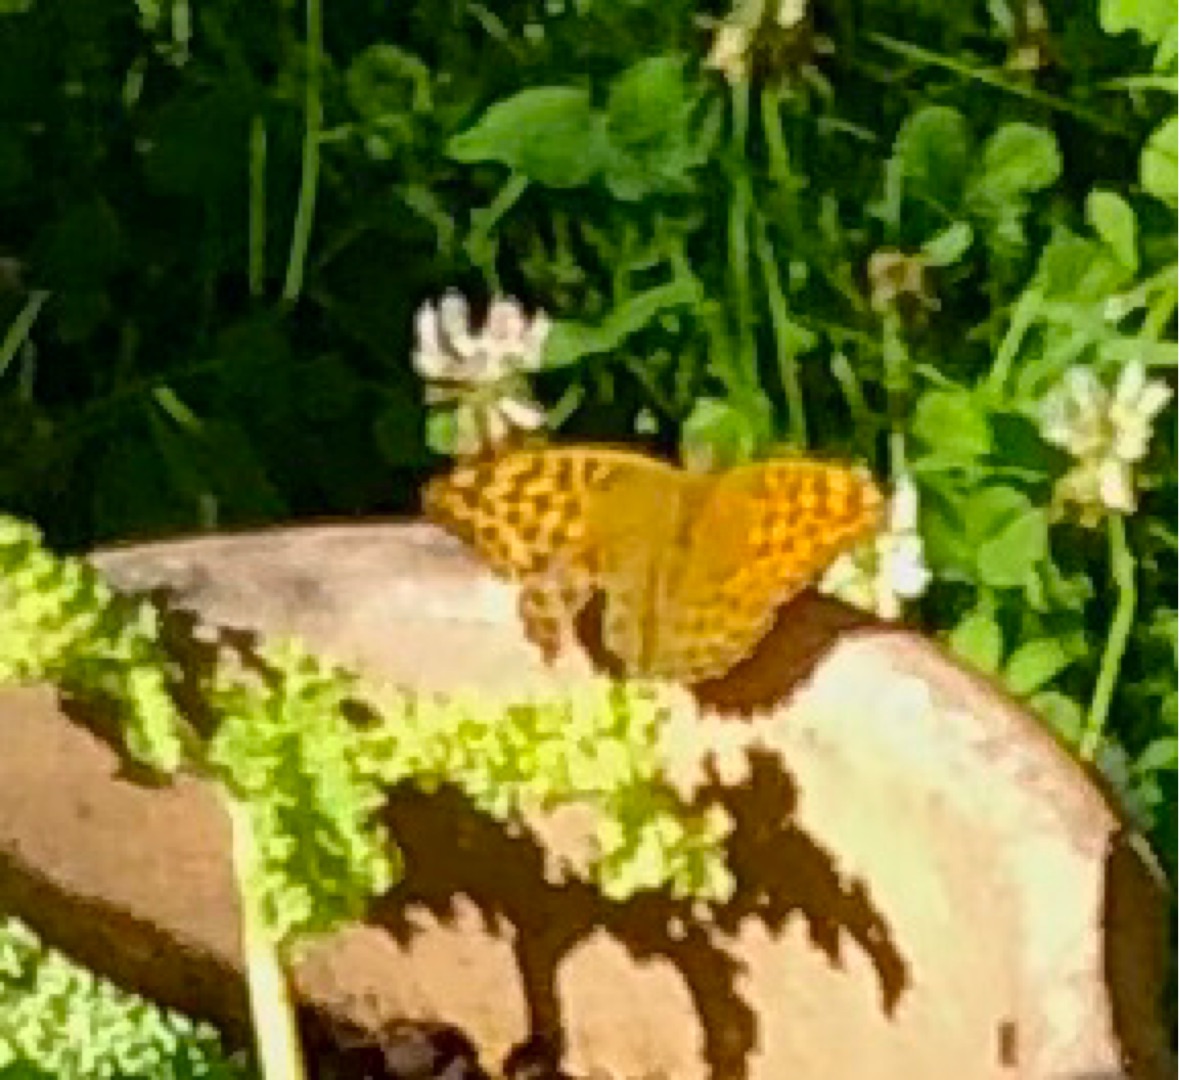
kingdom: Animalia
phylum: Arthropoda
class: Insecta
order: Lepidoptera
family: Nymphalidae
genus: Argynnis
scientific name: Argynnis paphia
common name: Kejserkåbe
